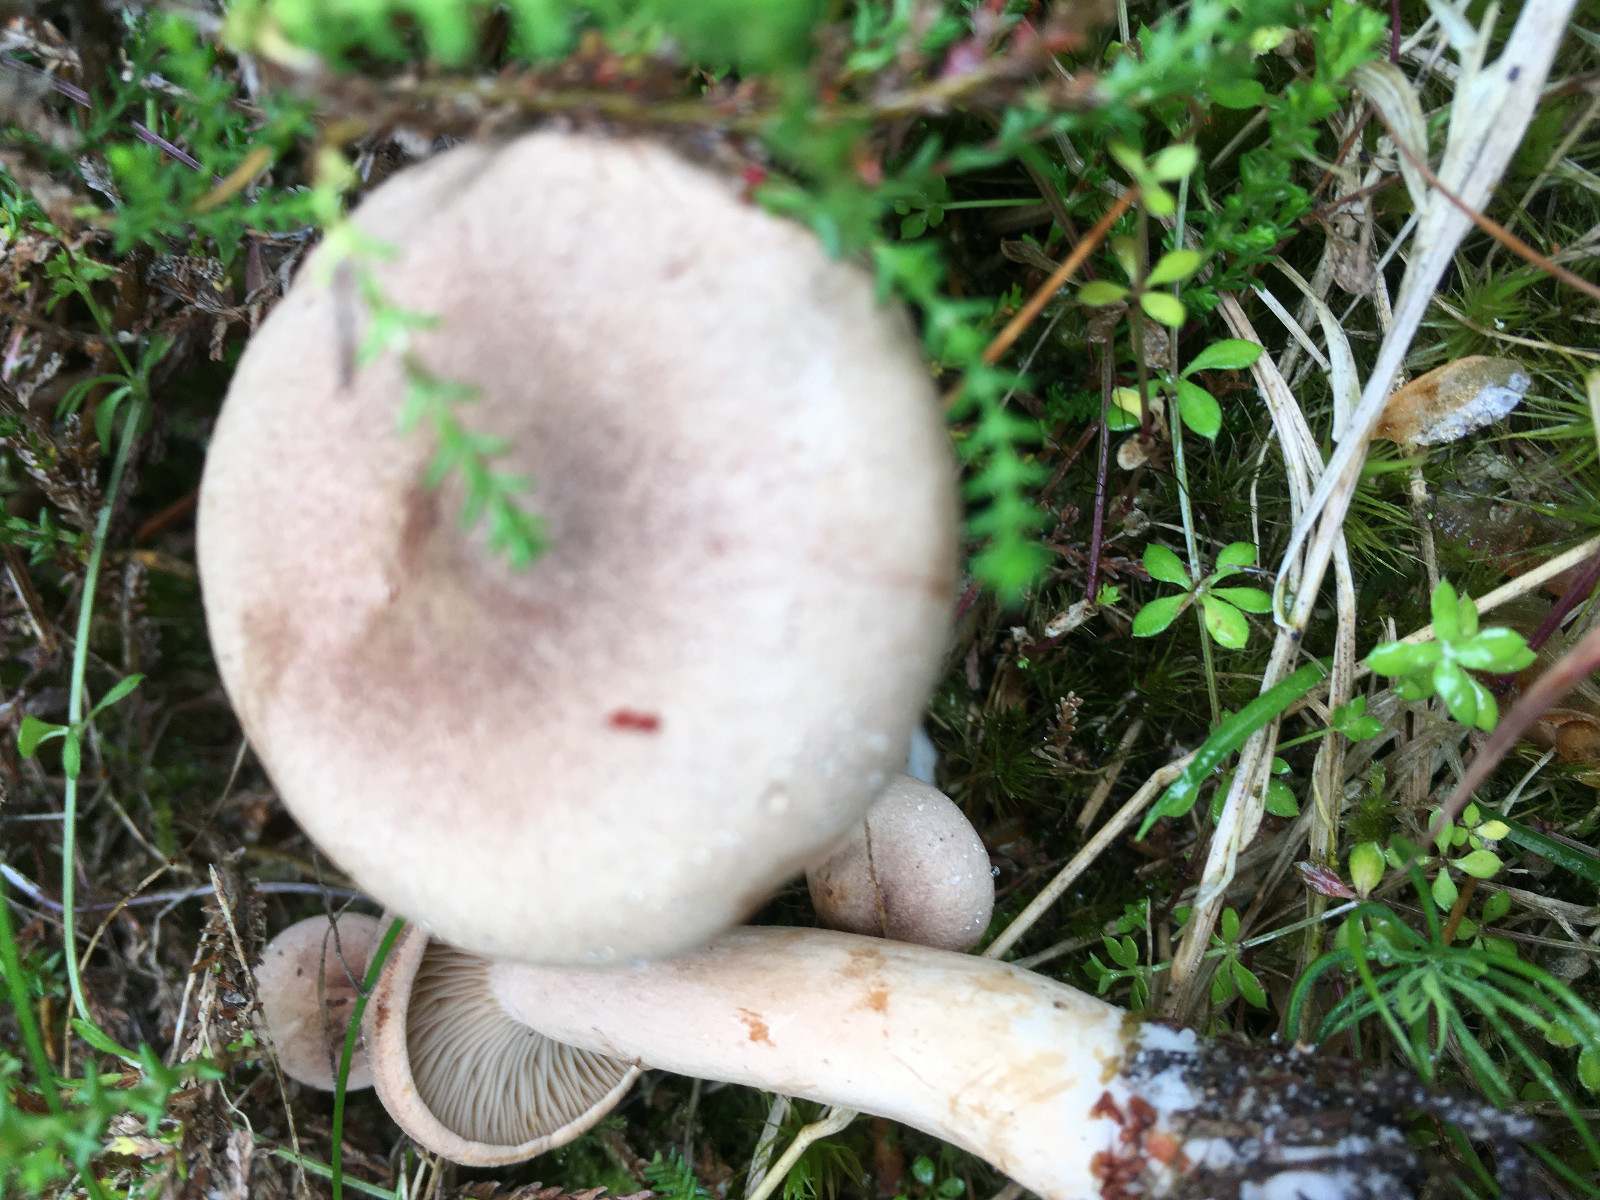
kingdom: Fungi
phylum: Basidiomycota
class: Agaricomycetes
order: Russulales
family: Russulaceae
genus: Lactarius
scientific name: Lactarius helvus
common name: mose-mælkehat
